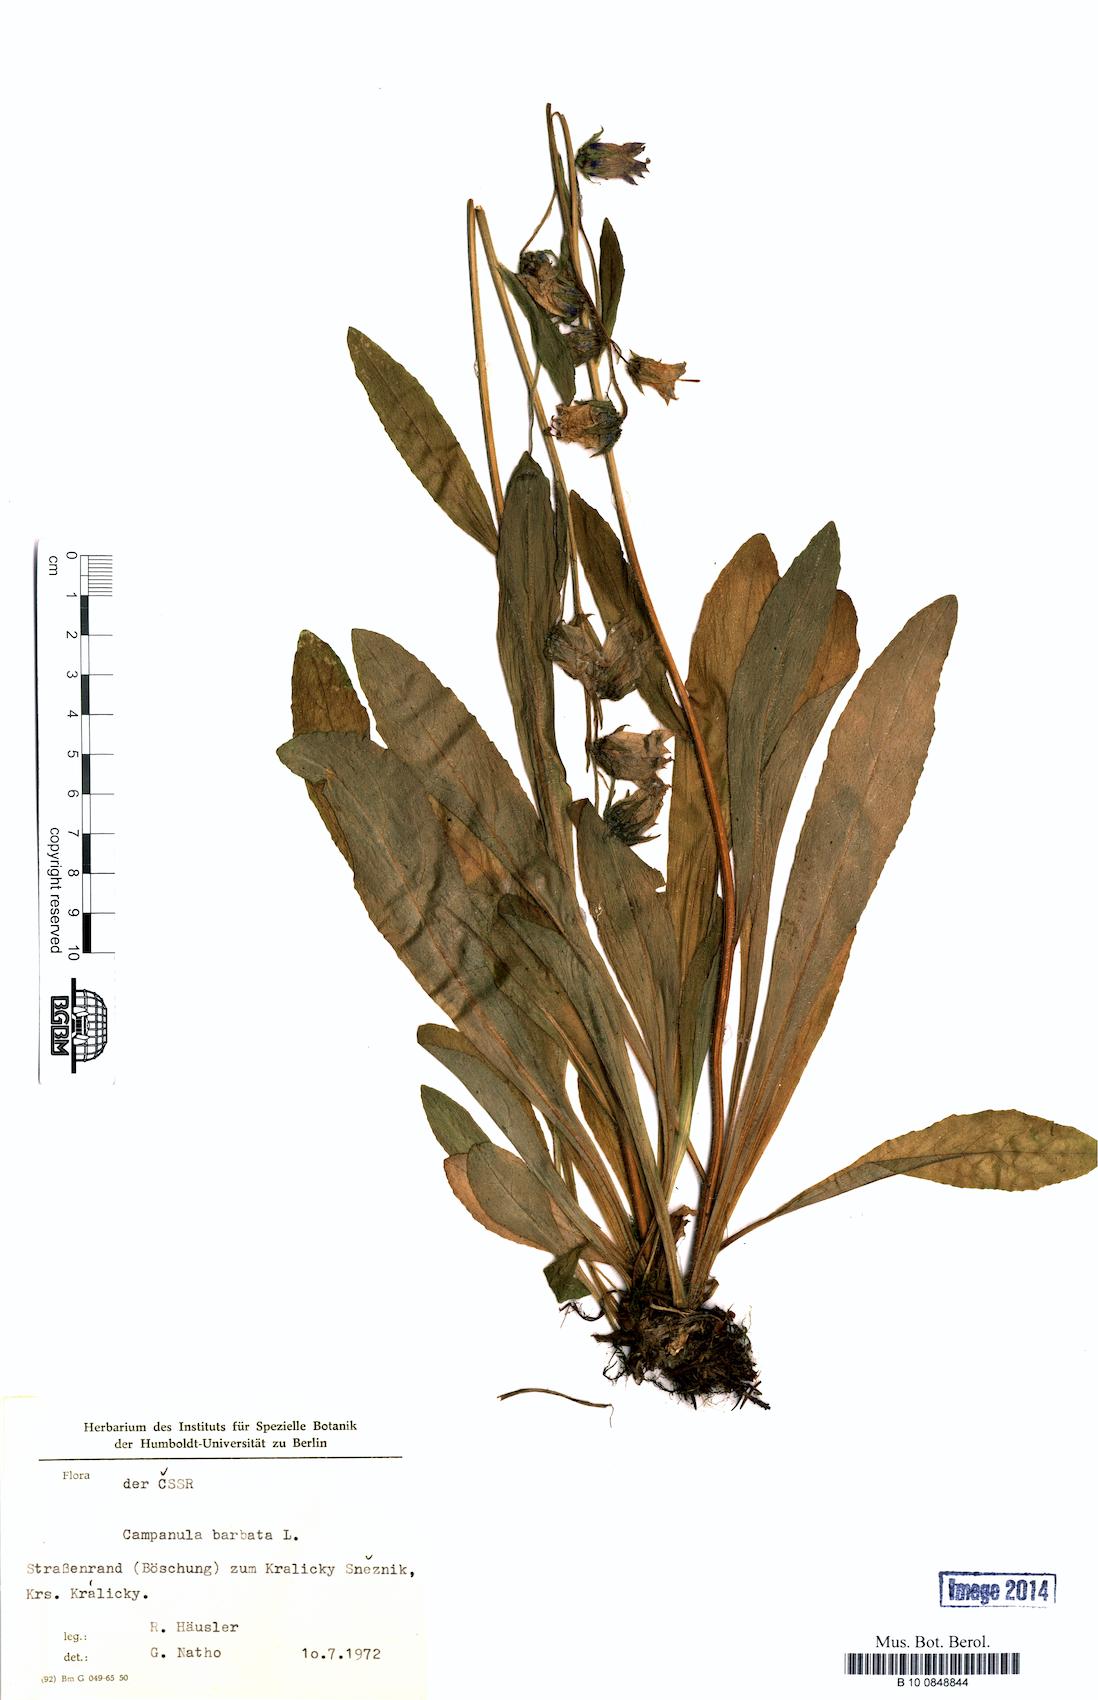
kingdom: Plantae
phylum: Tracheophyta
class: Magnoliopsida
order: Asterales
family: Campanulaceae
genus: Campanula
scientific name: Campanula barbata
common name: Bearded bellflower
